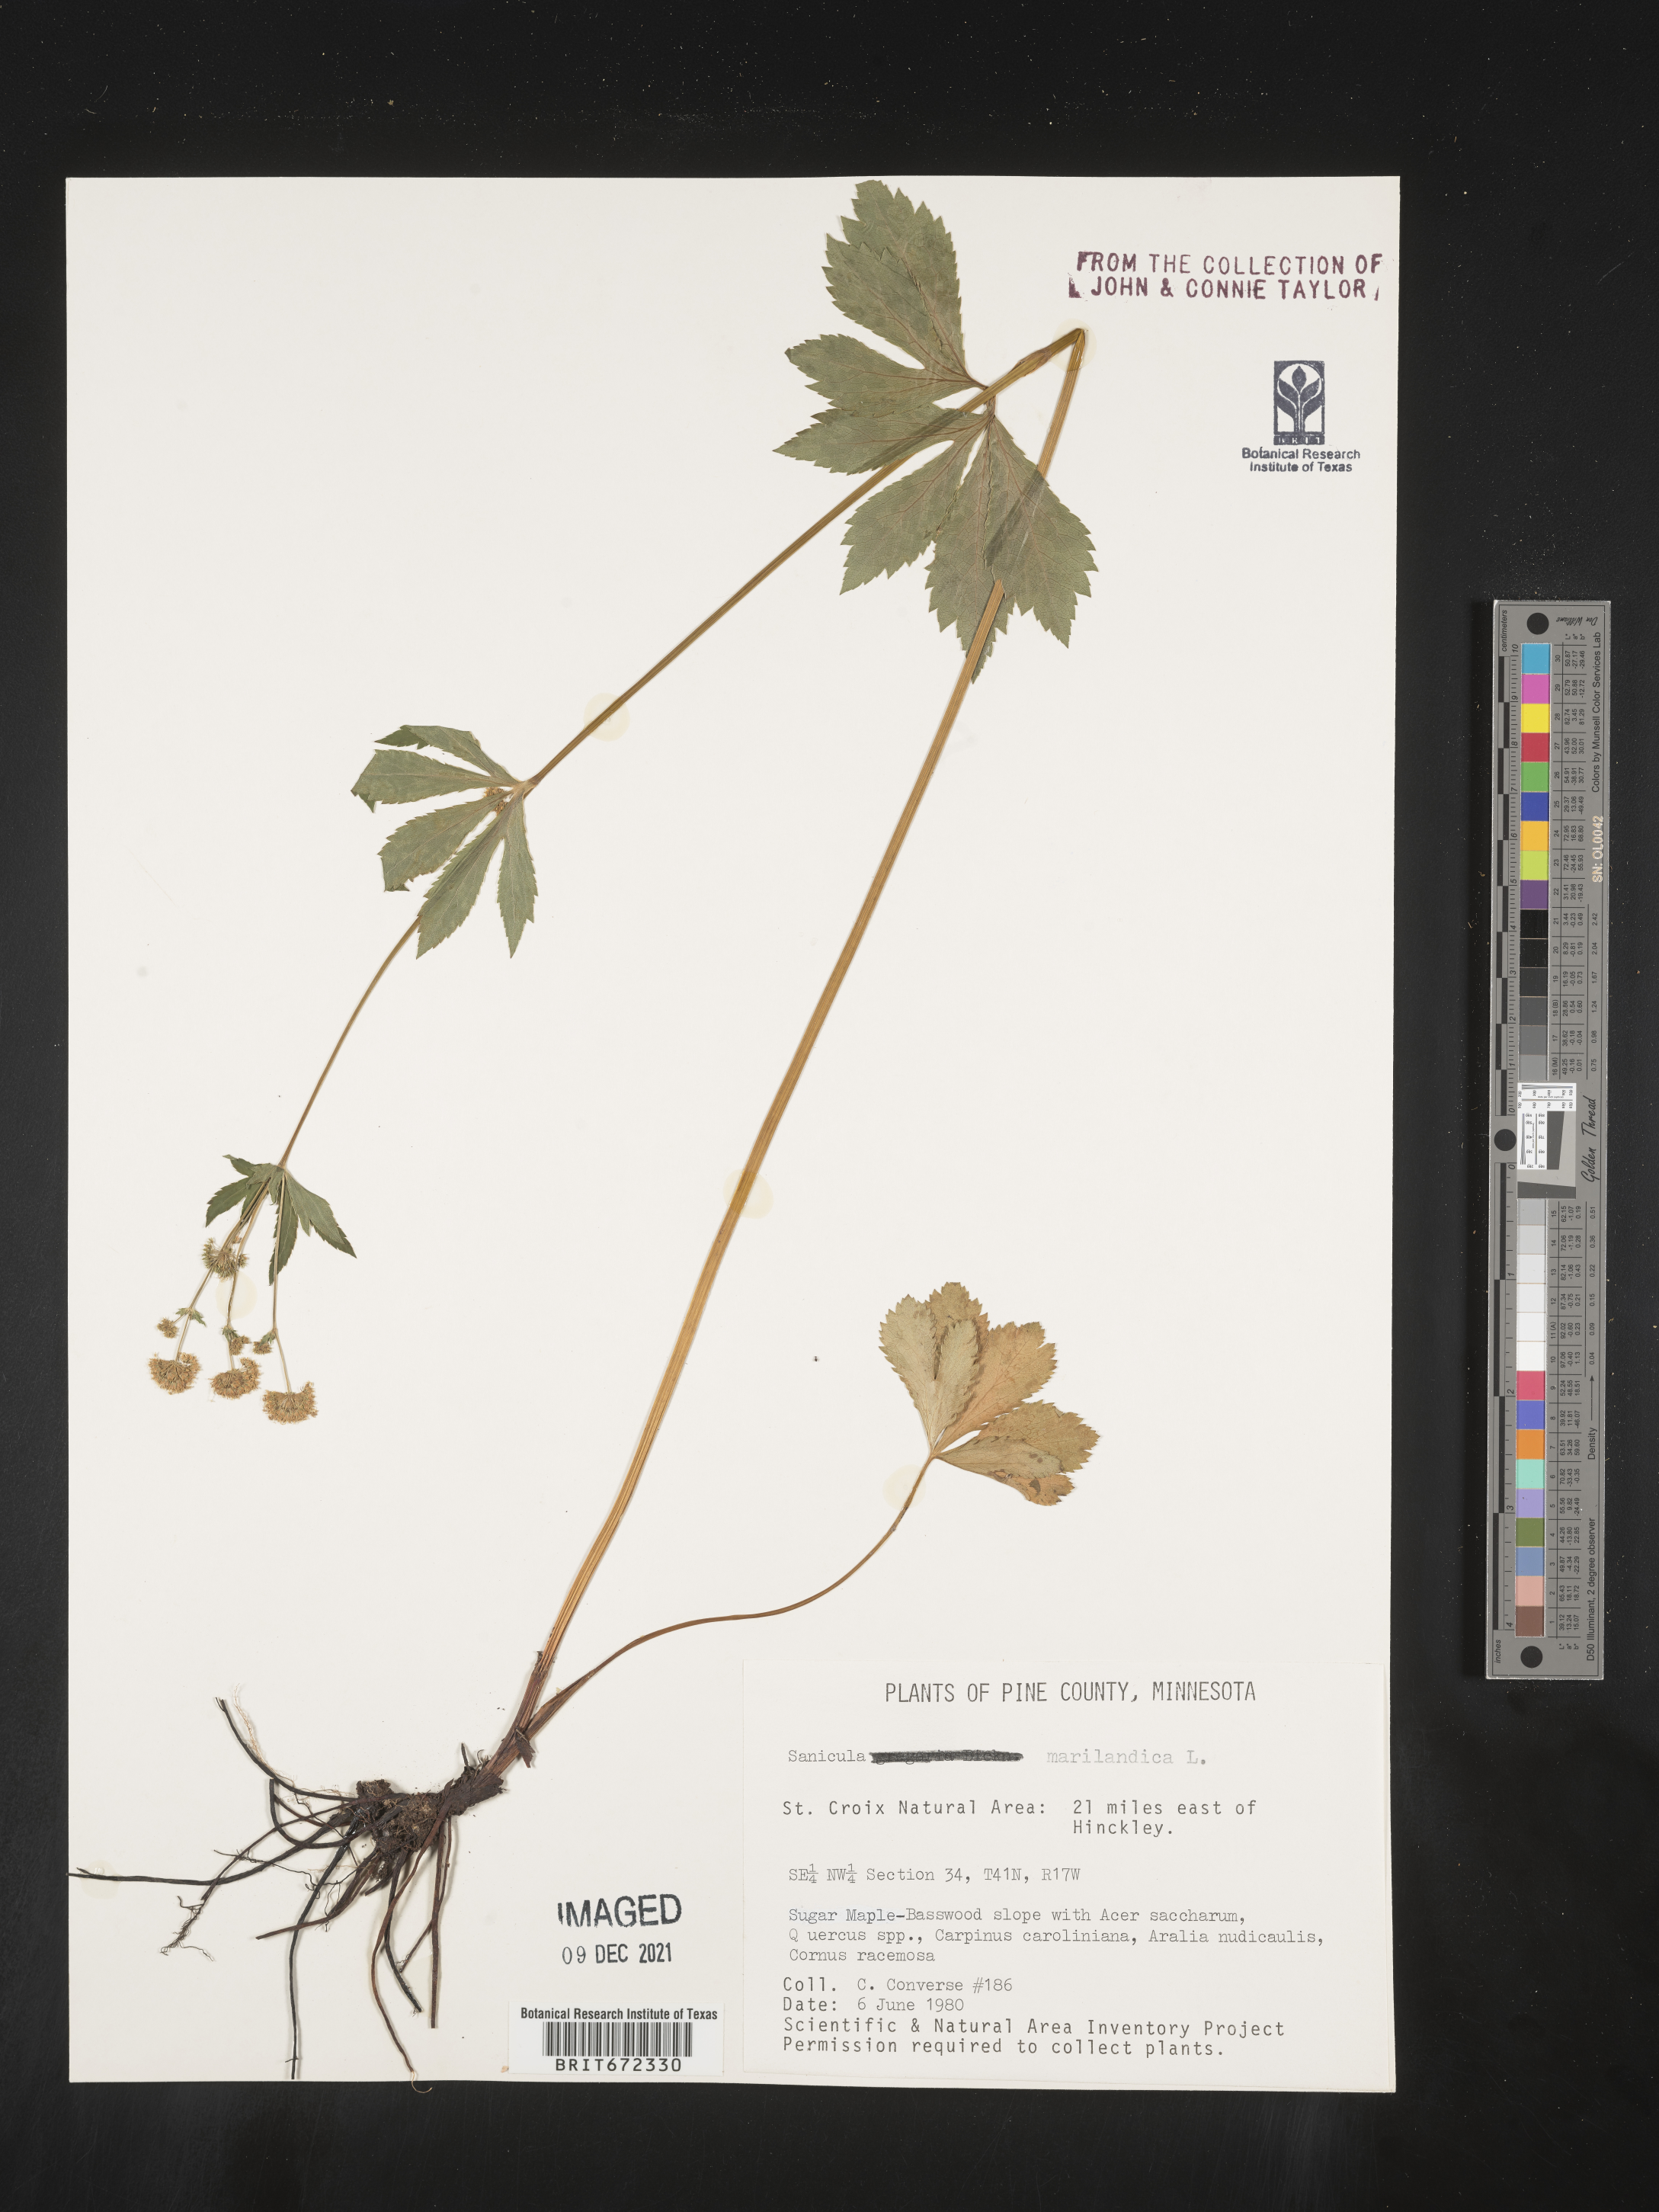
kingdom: Plantae
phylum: Tracheophyta
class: Magnoliopsida
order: Apiales
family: Apiaceae
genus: Sanicula
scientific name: Sanicula marilandica
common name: Black snakeroot
